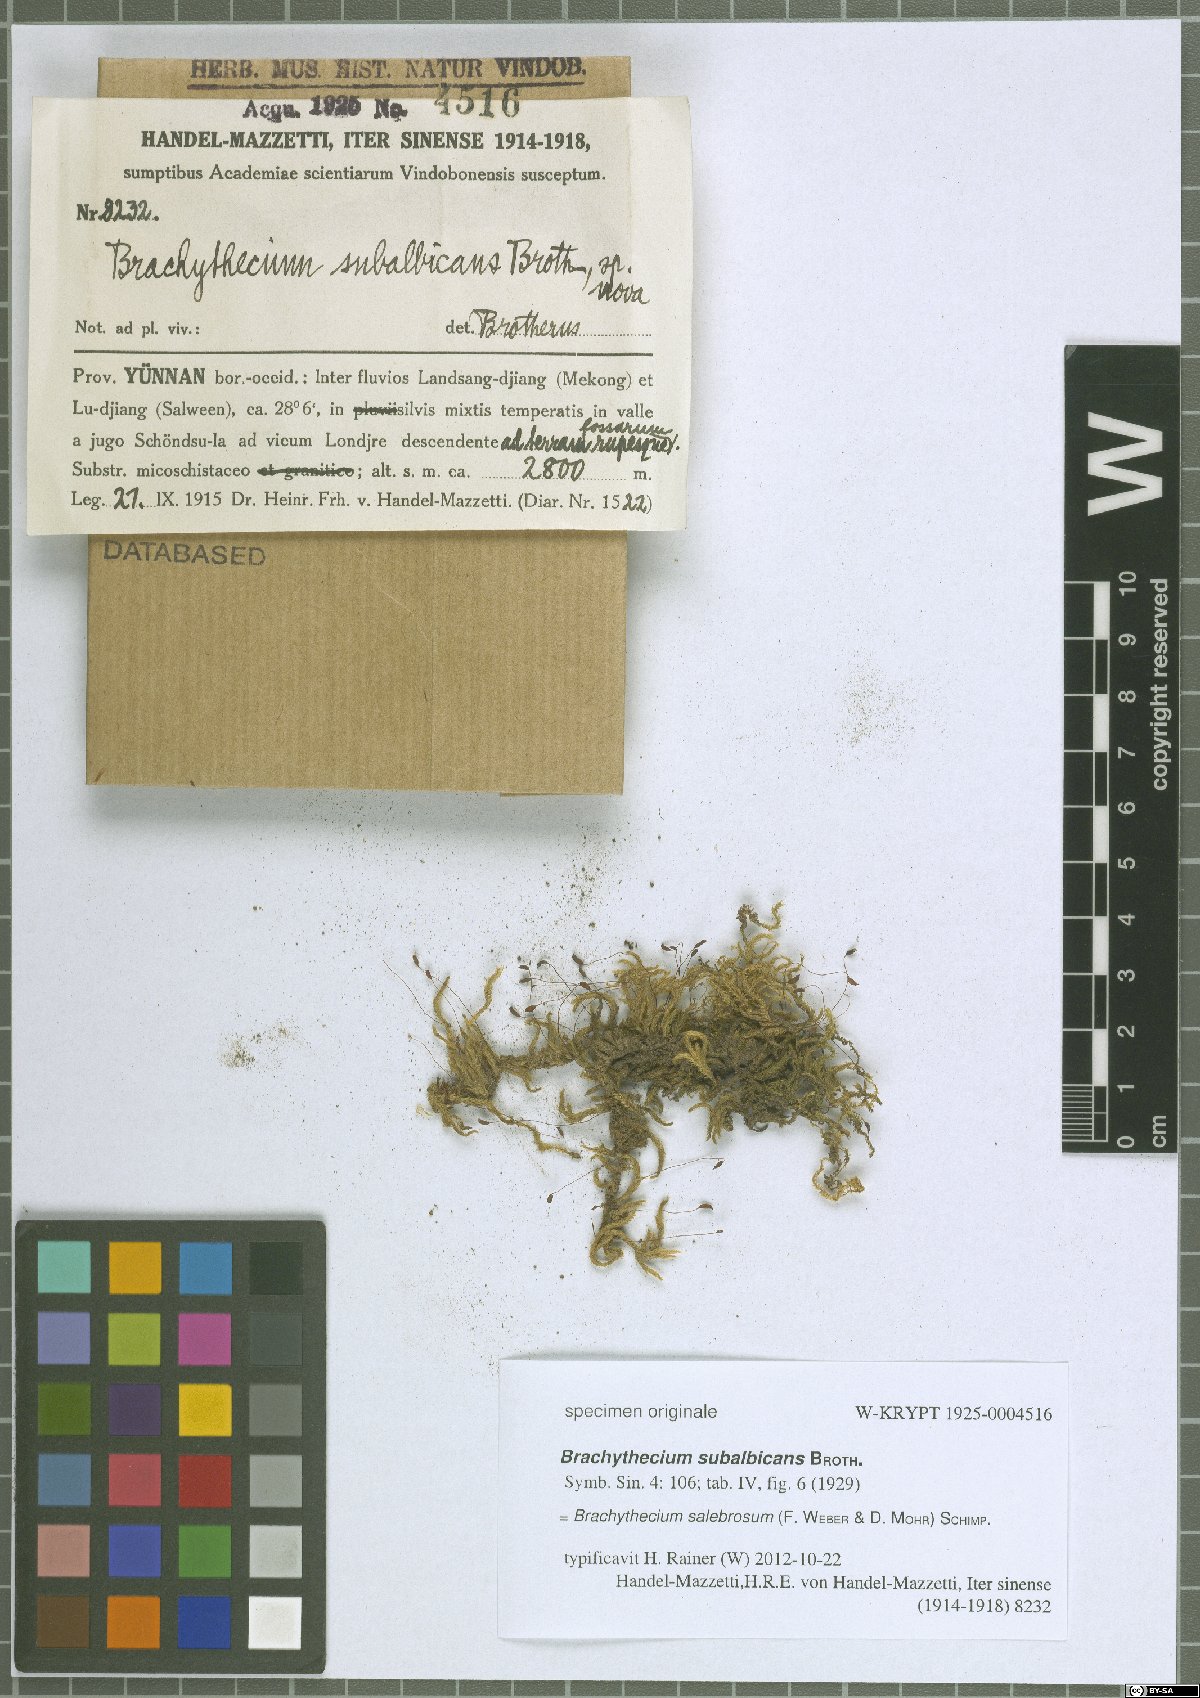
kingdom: Plantae
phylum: Bryophyta
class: Bryopsida
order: Hypnales
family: Brachytheciaceae
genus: Brachythecium
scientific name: Brachythecium salebrosum
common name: Smooth-stalk feather-moss
